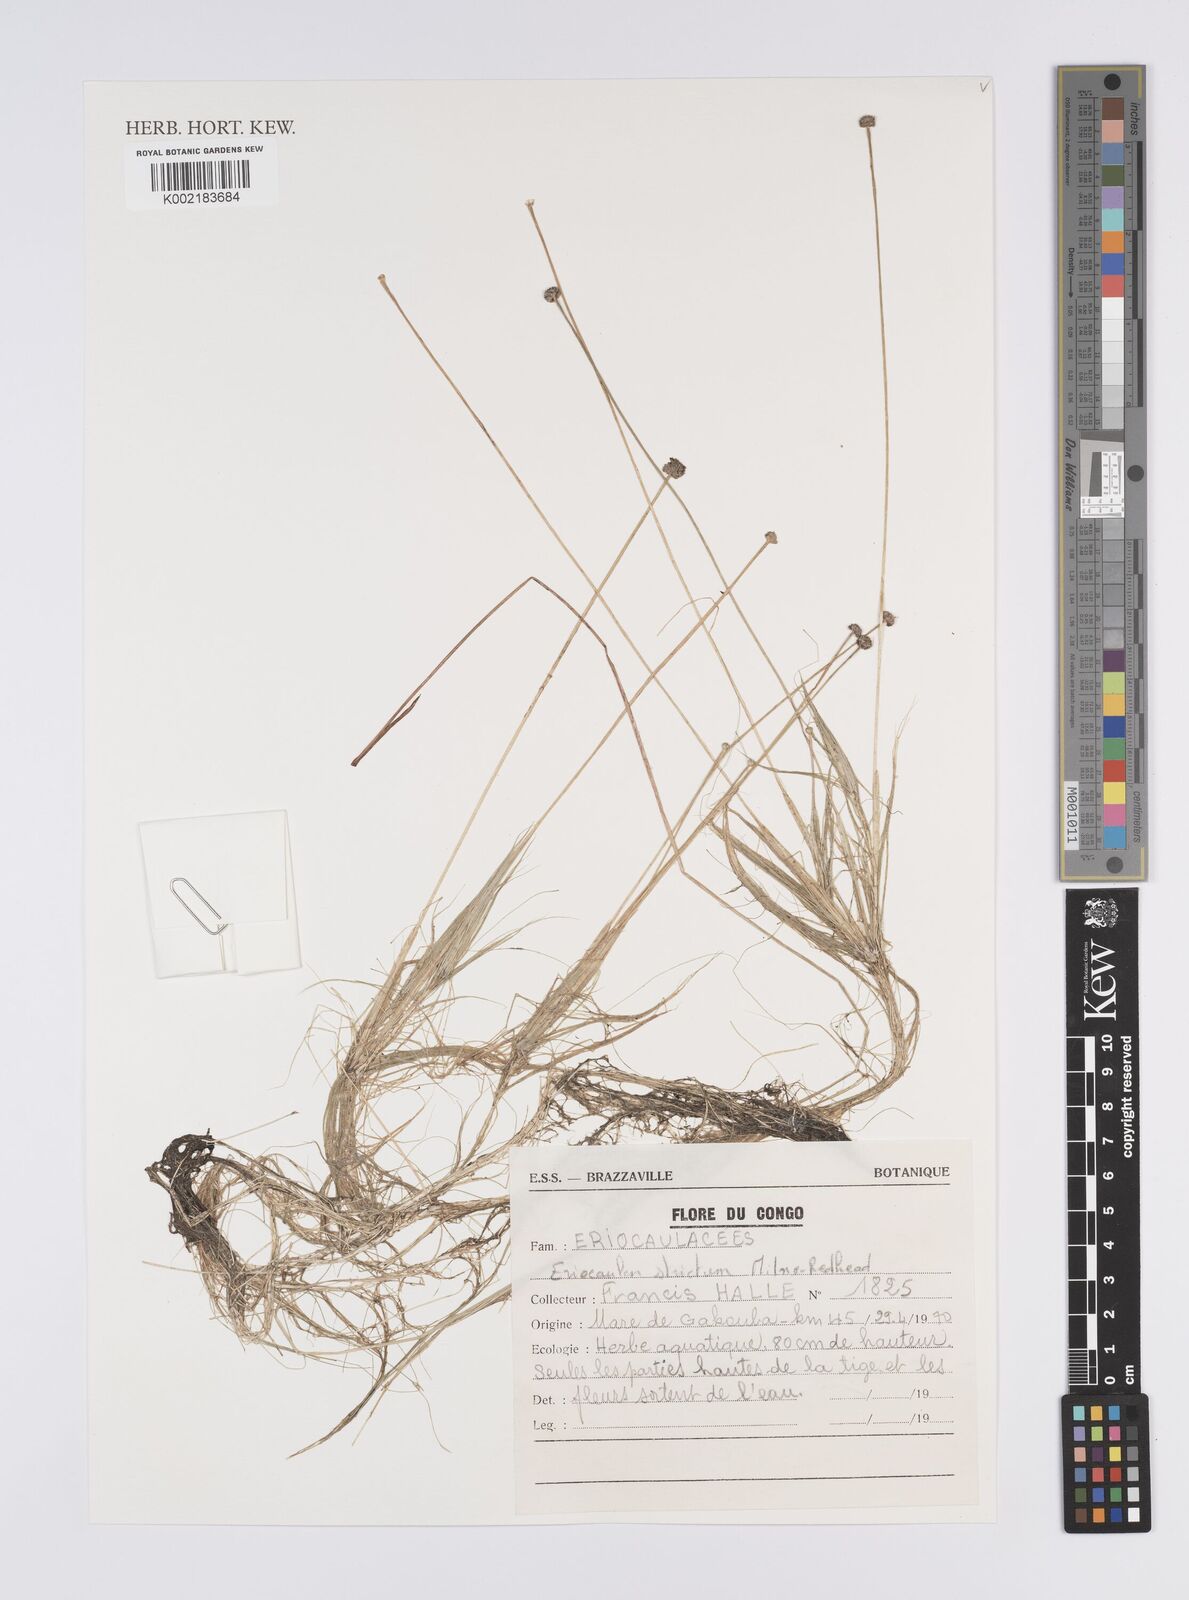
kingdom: Plantae
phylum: Tracheophyta
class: Liliopsida
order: Poales
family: Eriocaulaceae
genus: Eriocaulon
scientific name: Eriocaulon setaceum
